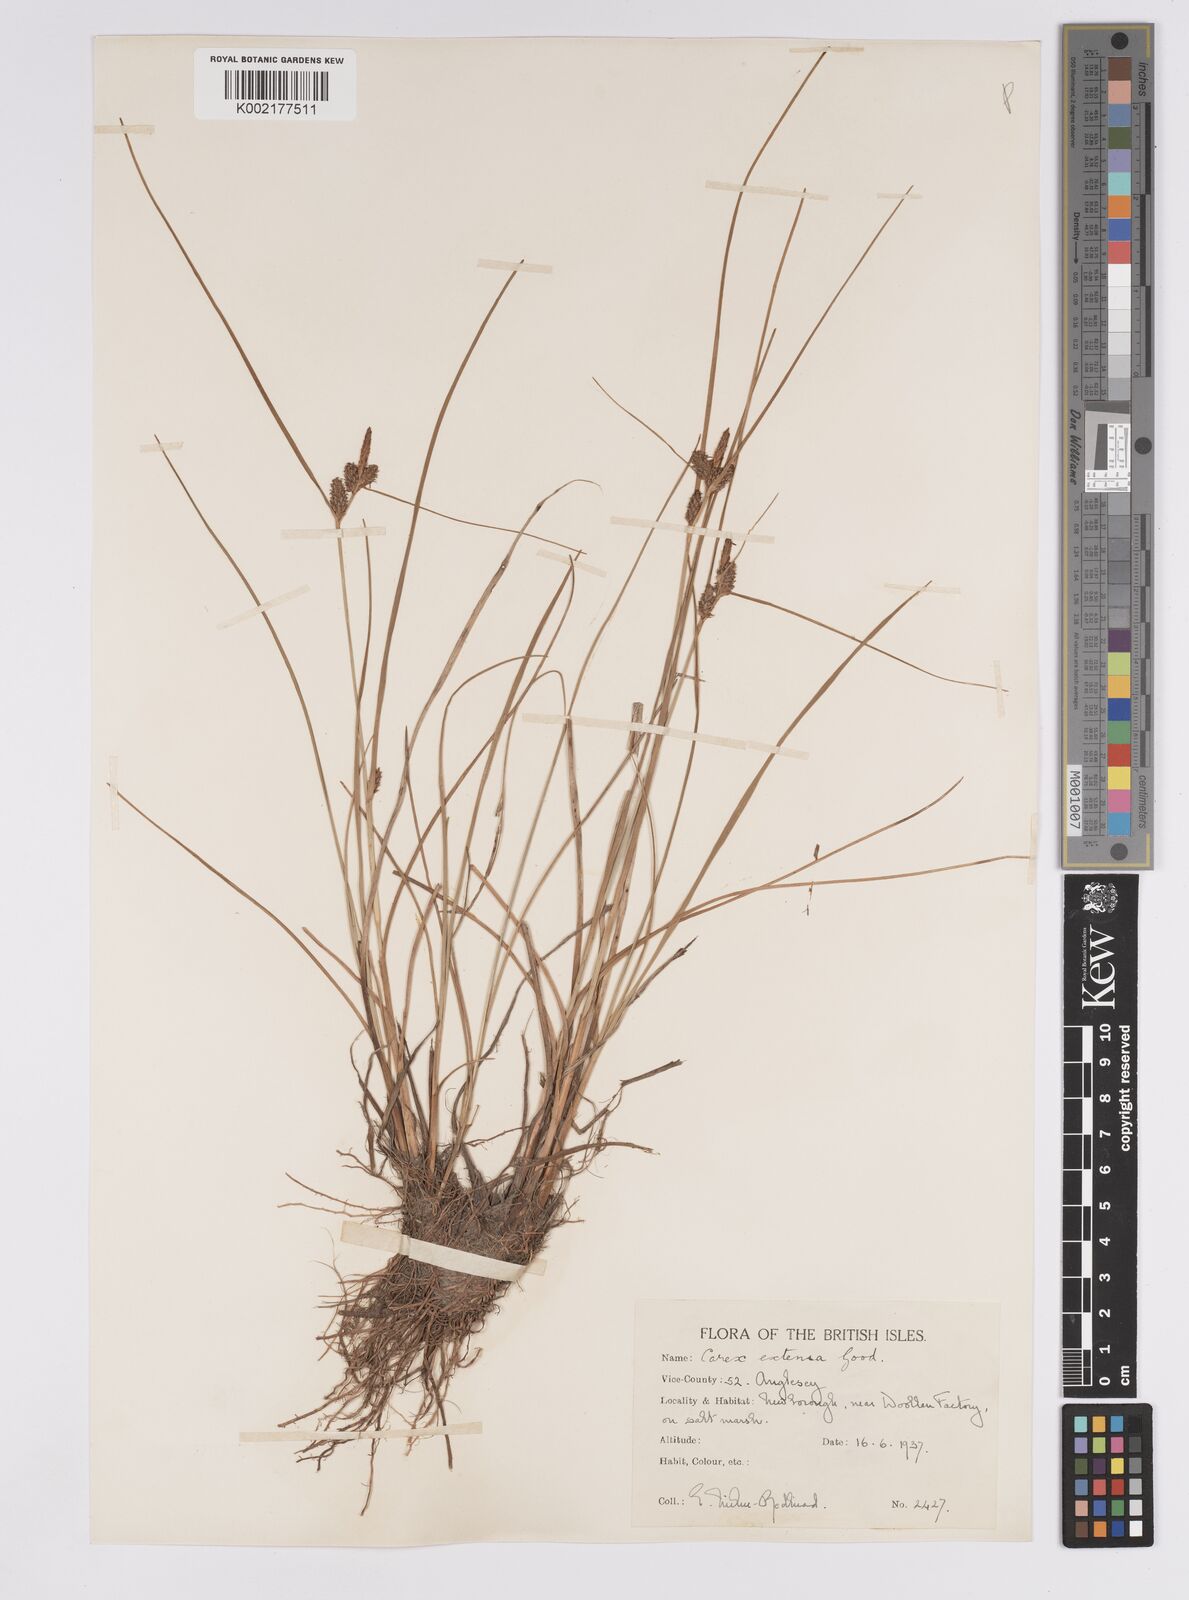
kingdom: Plantae
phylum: Tracheophyta
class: Liliopsida
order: Poales
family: Cyperaceae
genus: Carex
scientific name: Carex extensa
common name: Long-bracted sedge
